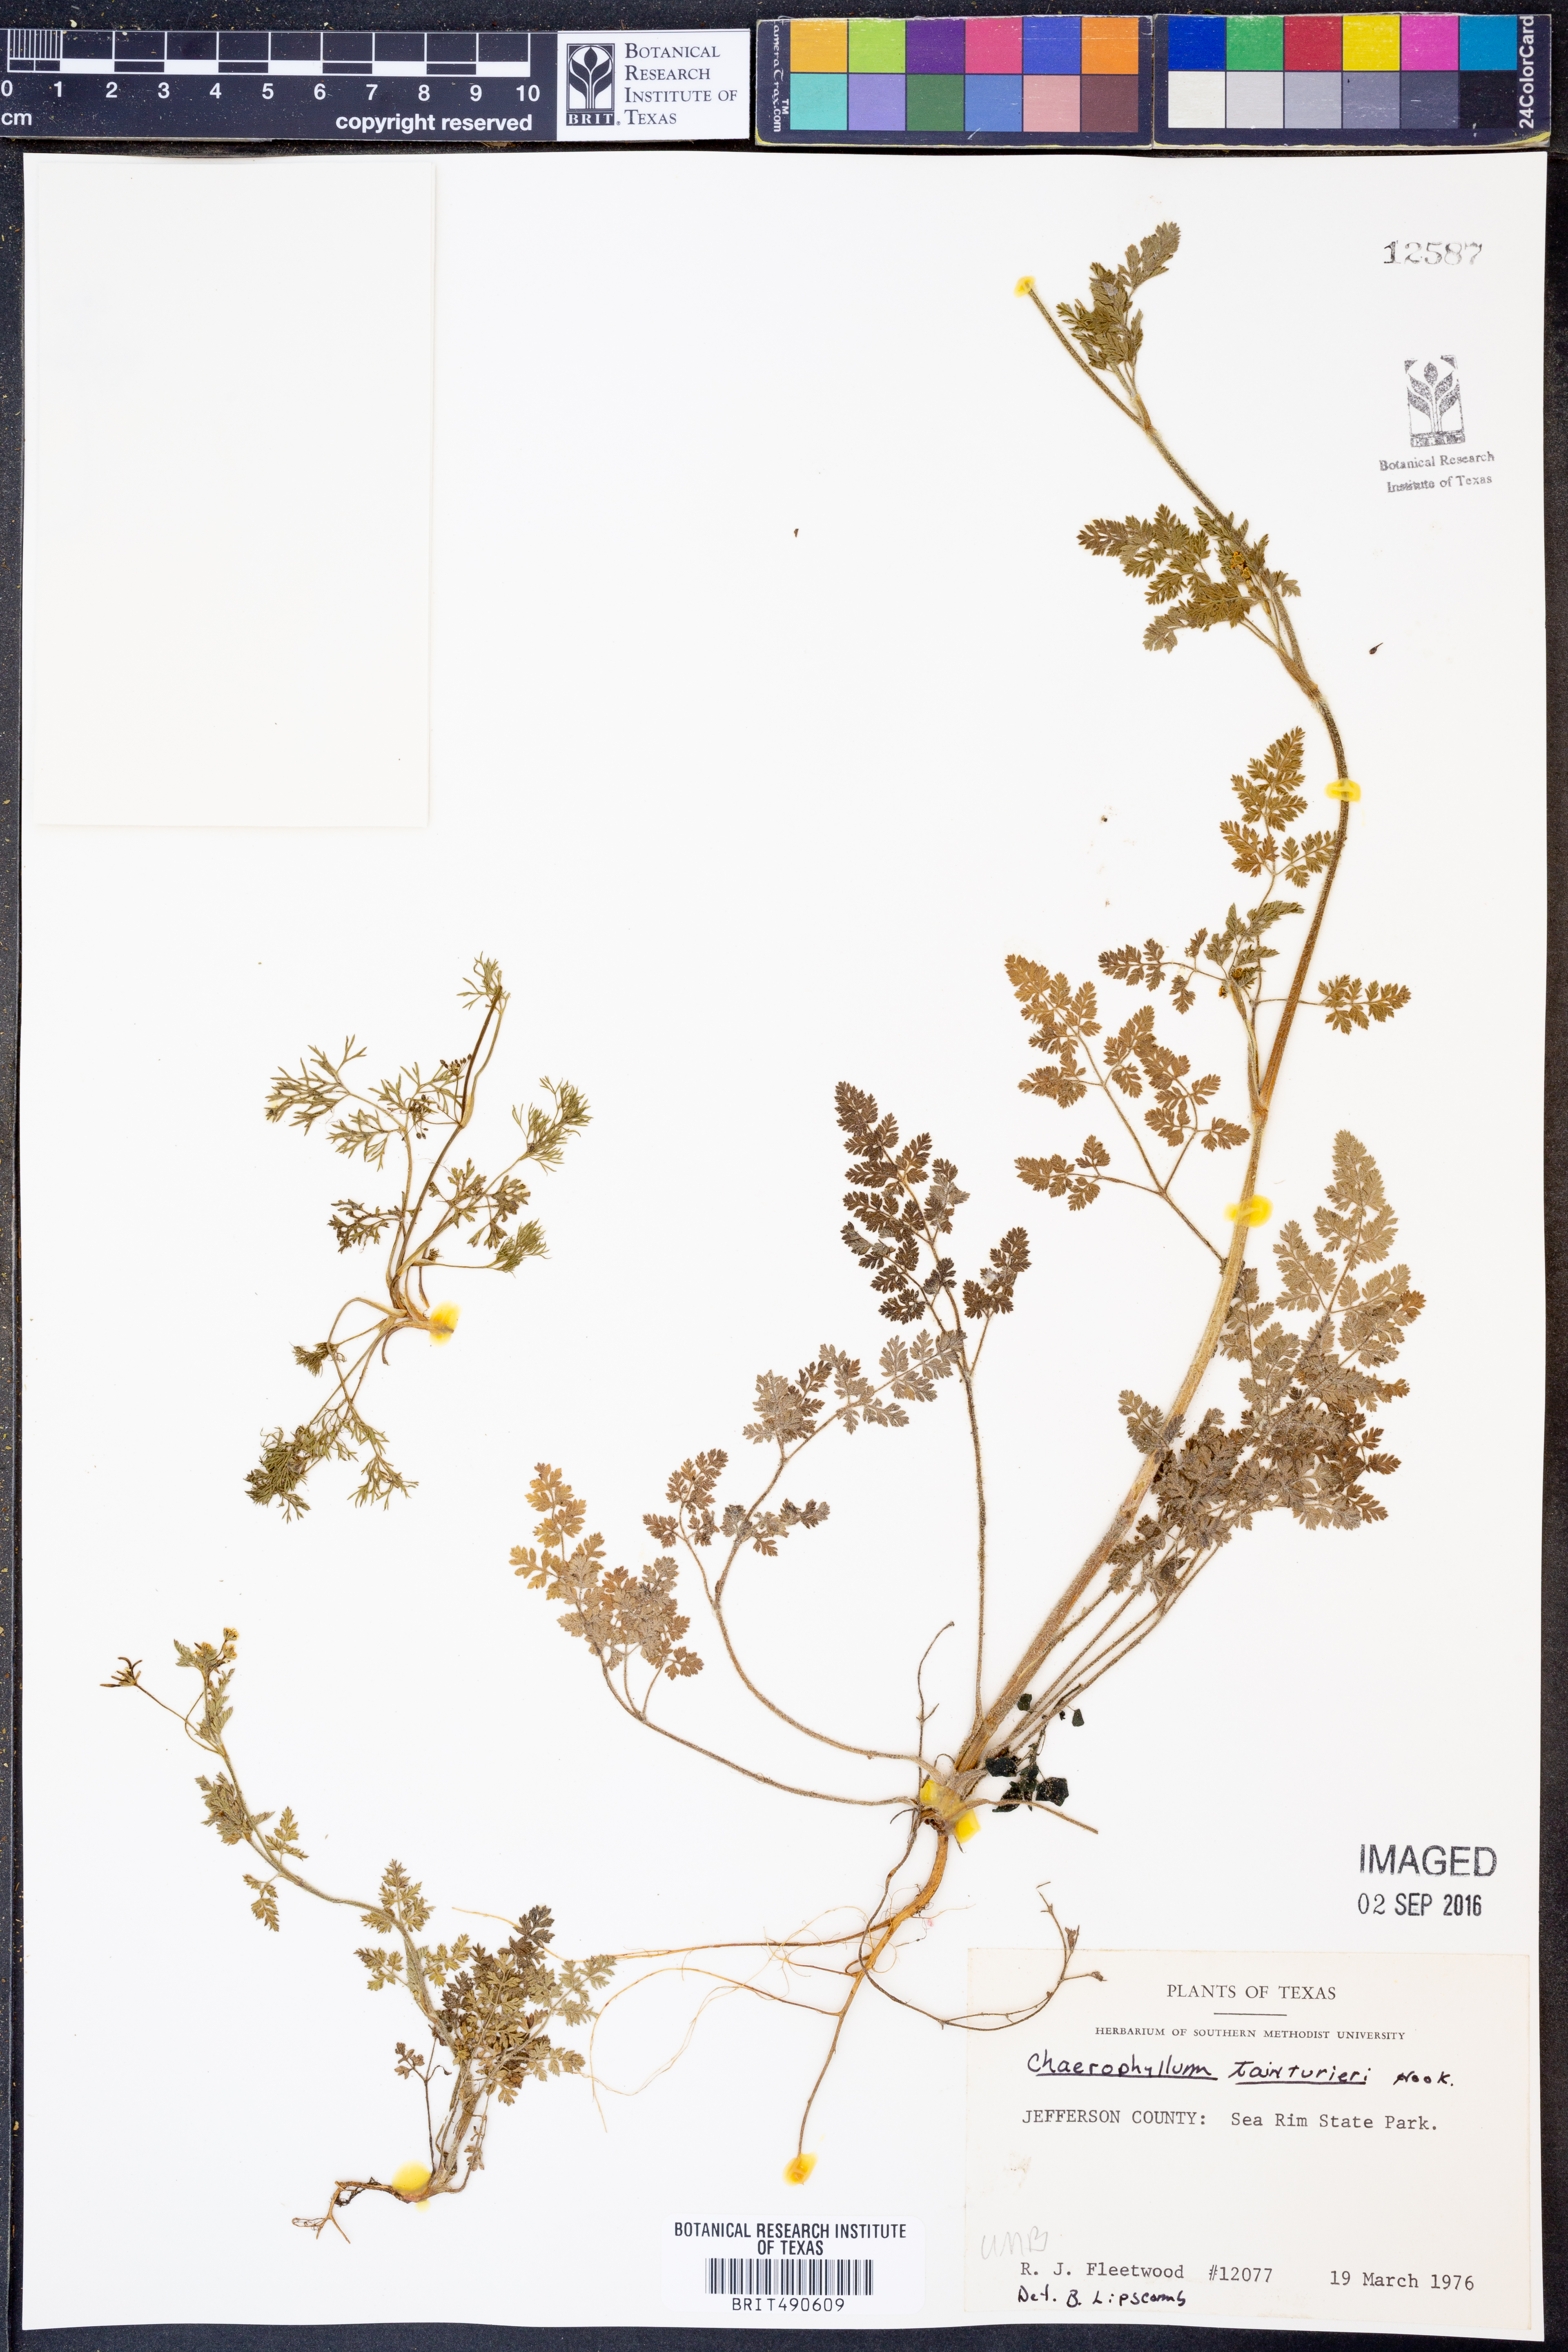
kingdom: Plantae
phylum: Tracheophyta
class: Magnoliopsida
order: Apiales
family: Apiaceae
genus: Chaerophyllum
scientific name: Chaerophyllum tainturieri
